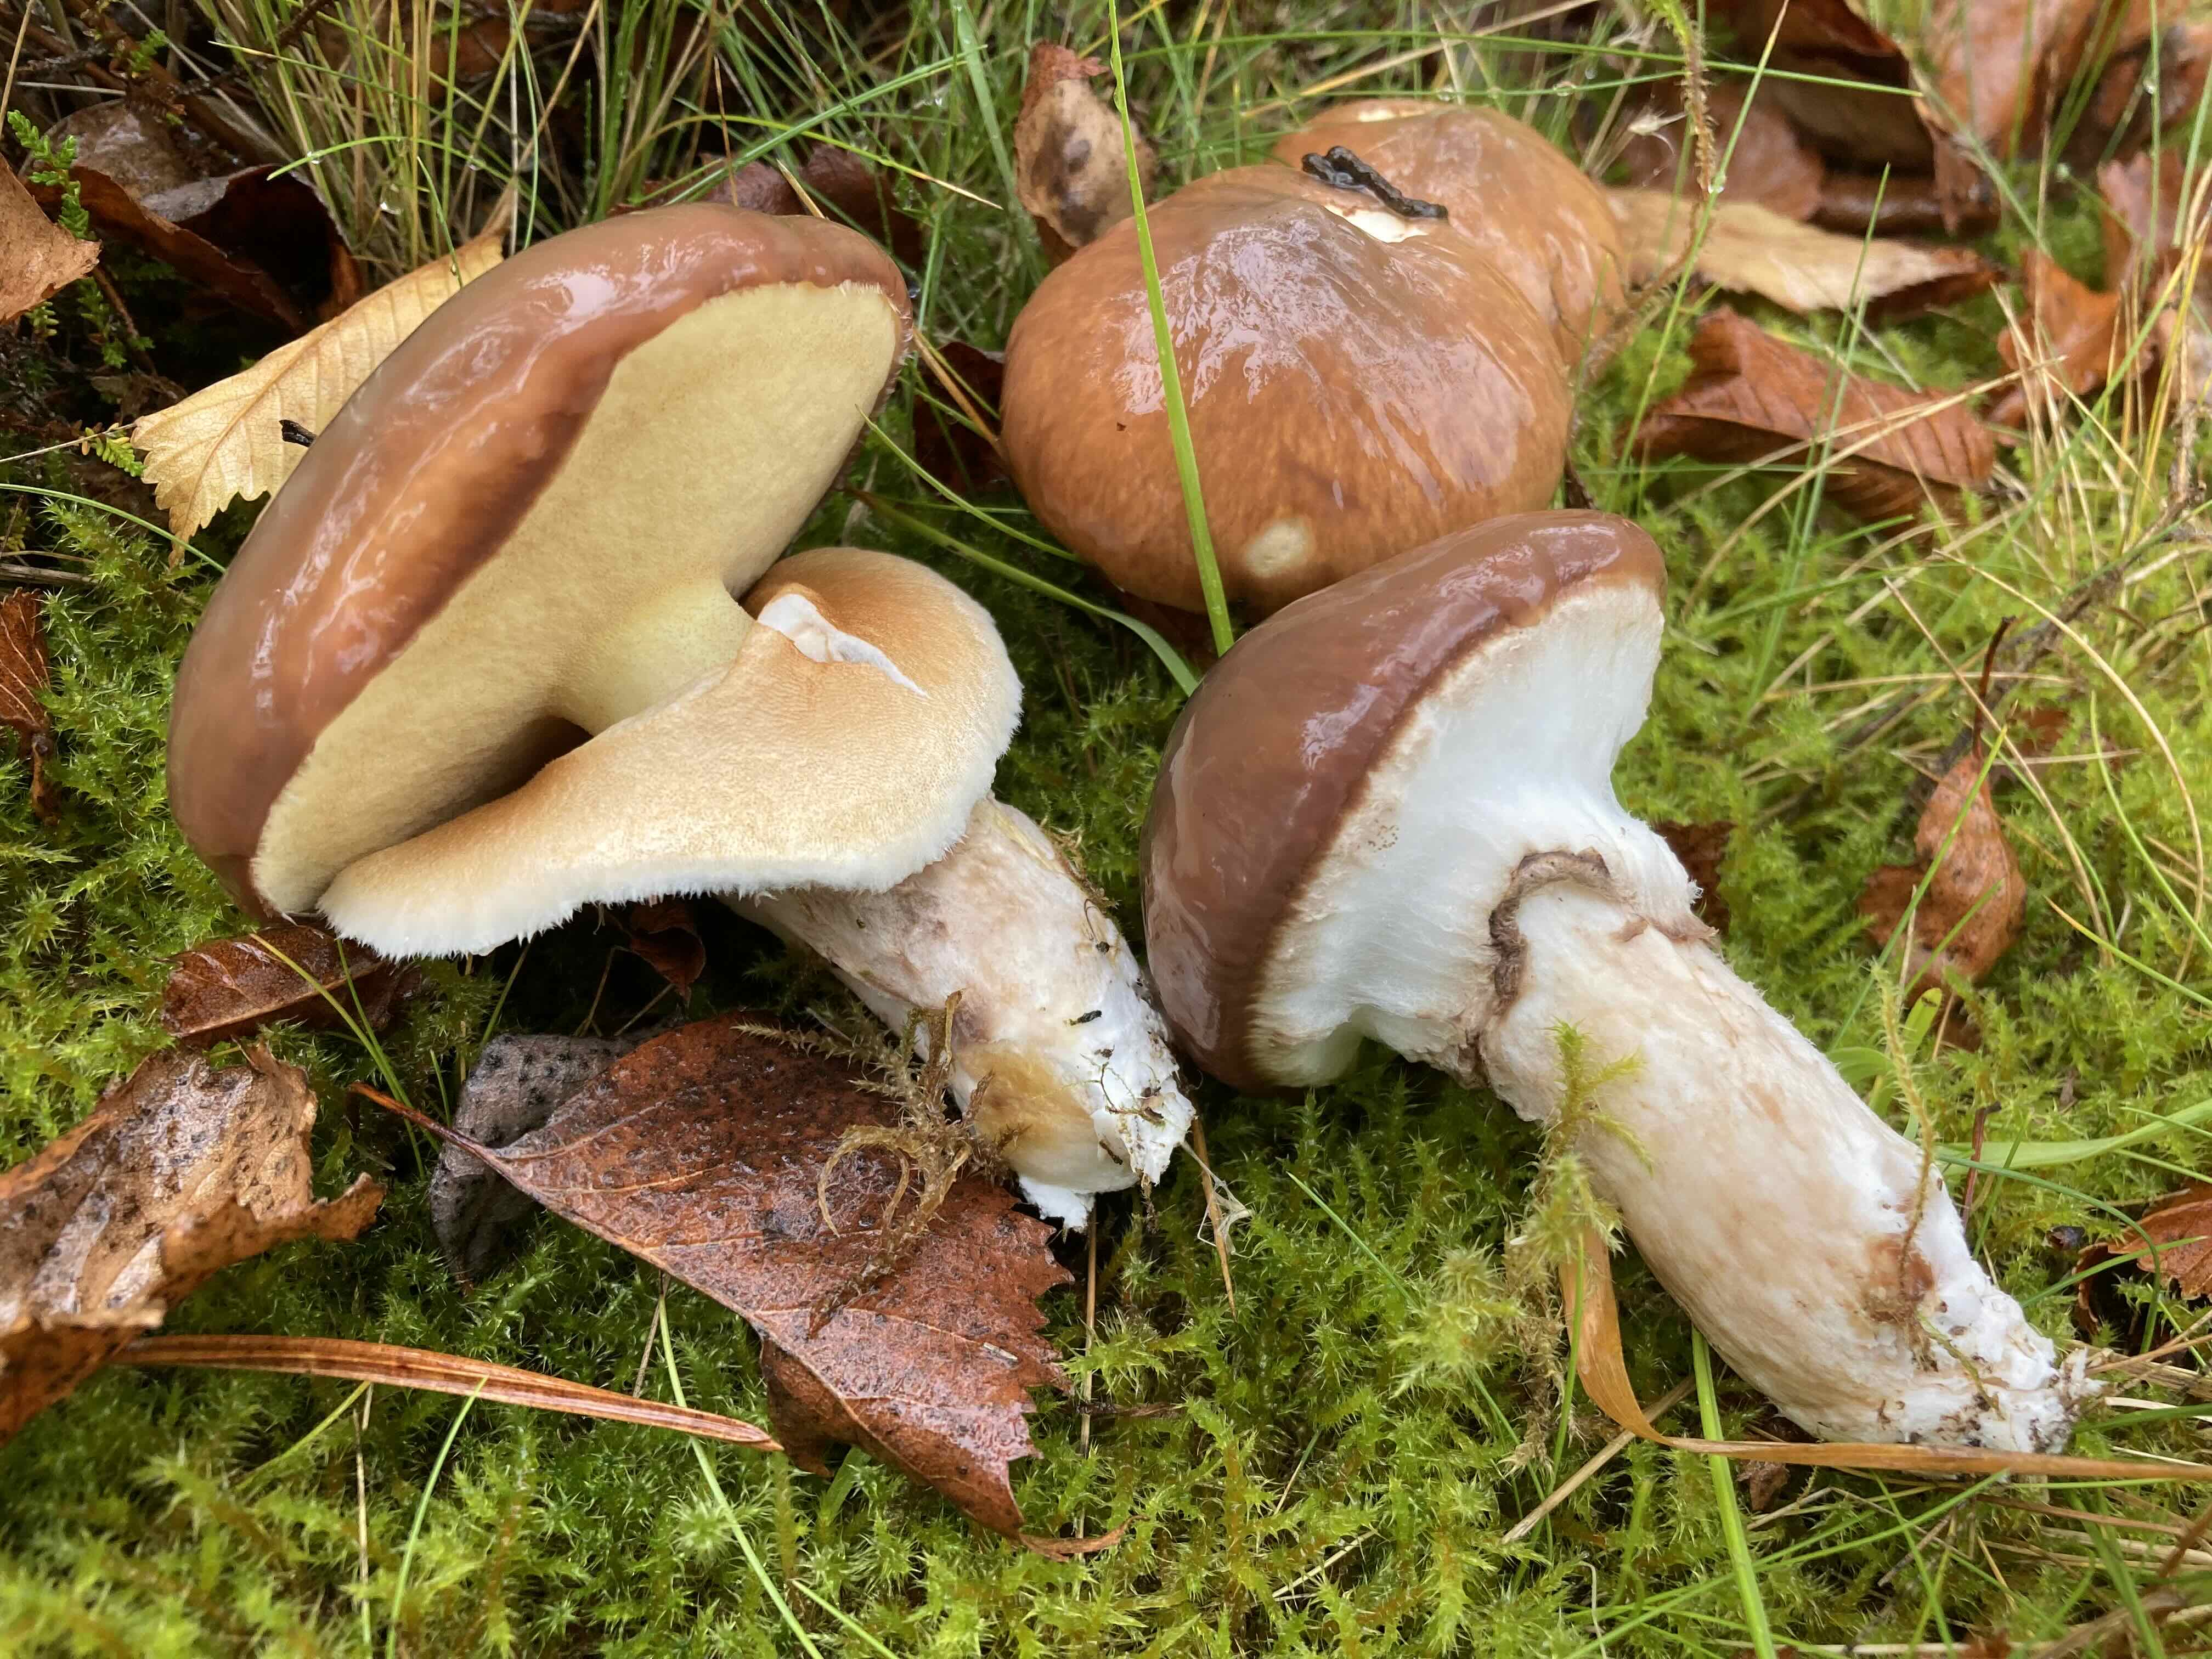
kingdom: Fungi
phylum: Basidiomycota
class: Agaricomycetes
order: Boletales
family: Suillaceae
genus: Suillus
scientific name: Suillus luteus
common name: brungul slimrørhat
